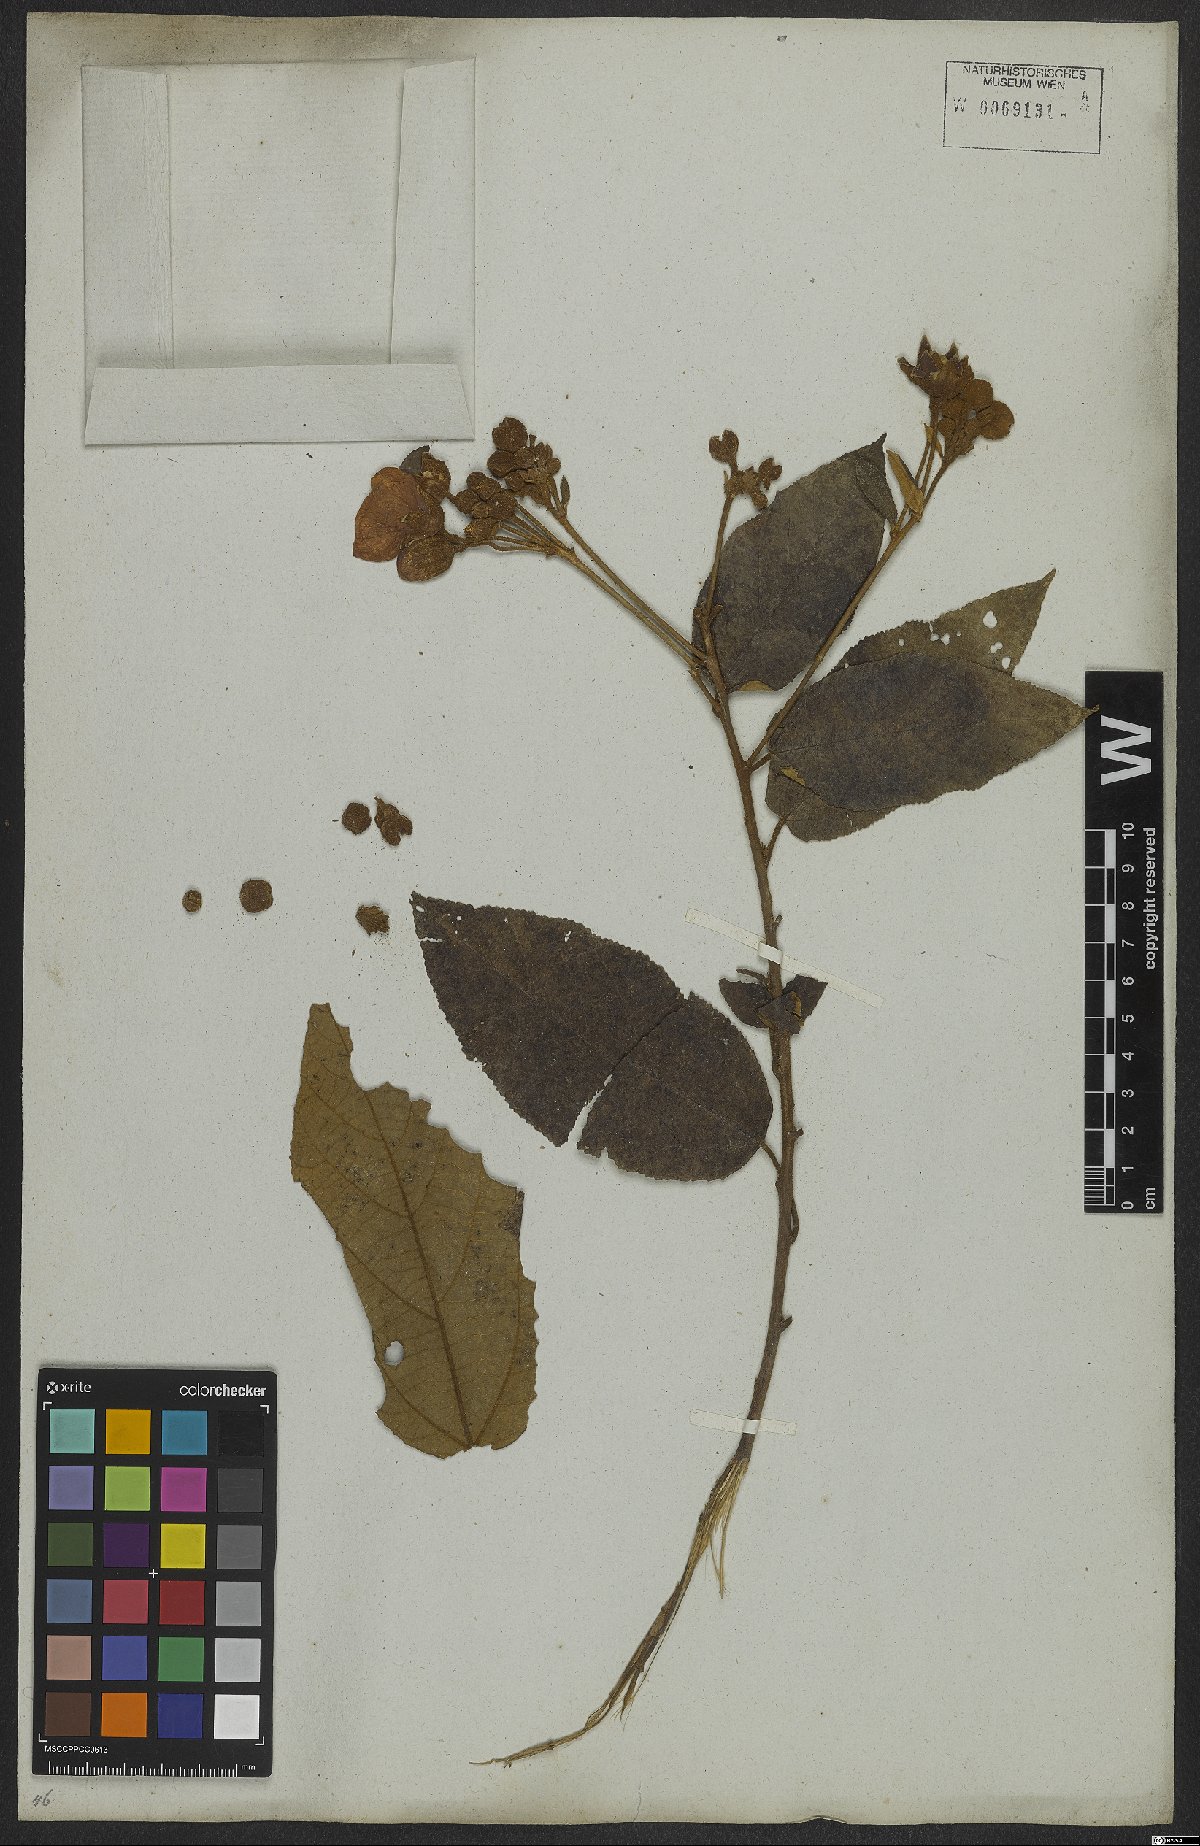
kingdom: Plantae
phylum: Tracheophyta
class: Magnoliopsida
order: Malvales
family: Malvaceae
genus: Callianthe
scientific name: Callianthe rufinerva
